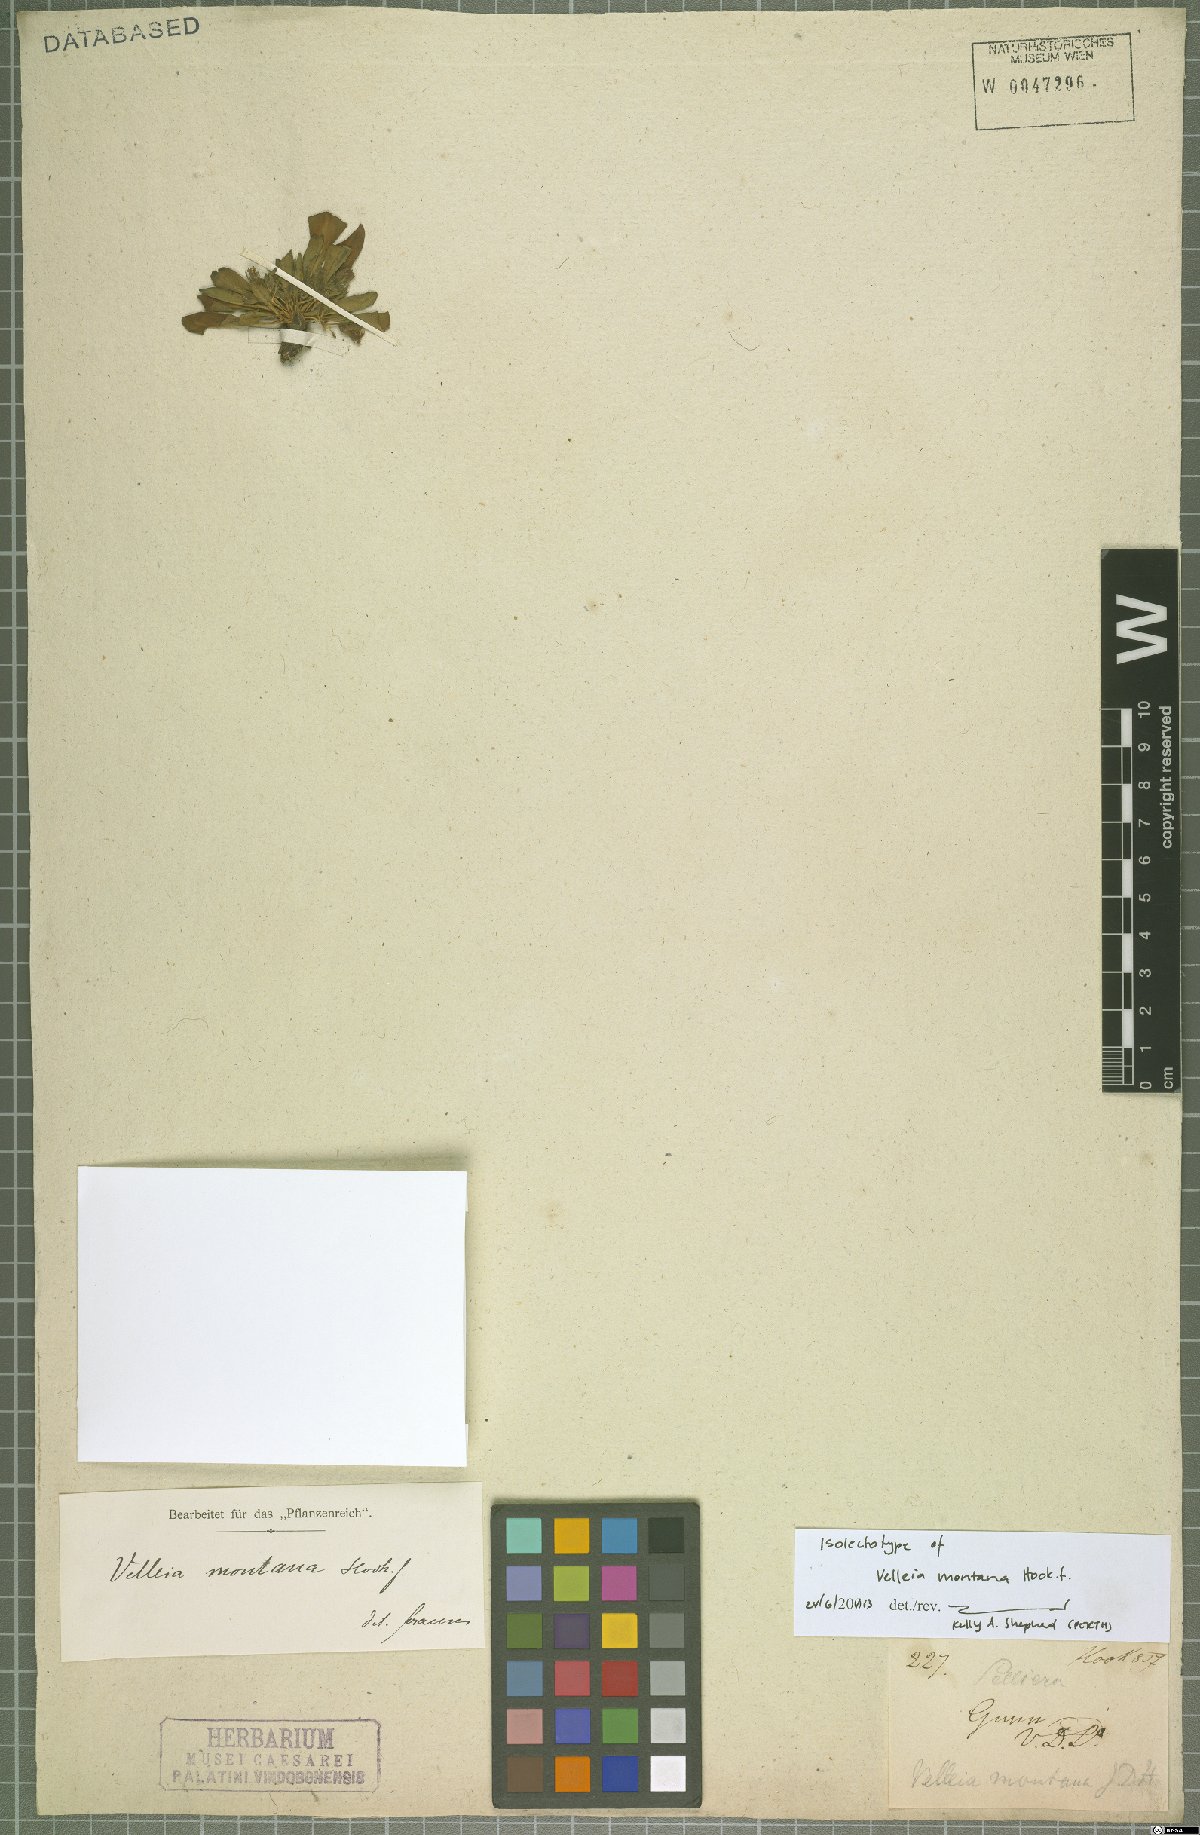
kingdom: Plantae
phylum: Tracheophyta
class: Magnoliopsida
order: Asterales
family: Goodeniaceae
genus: Goodenia
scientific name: Goodenia montana
